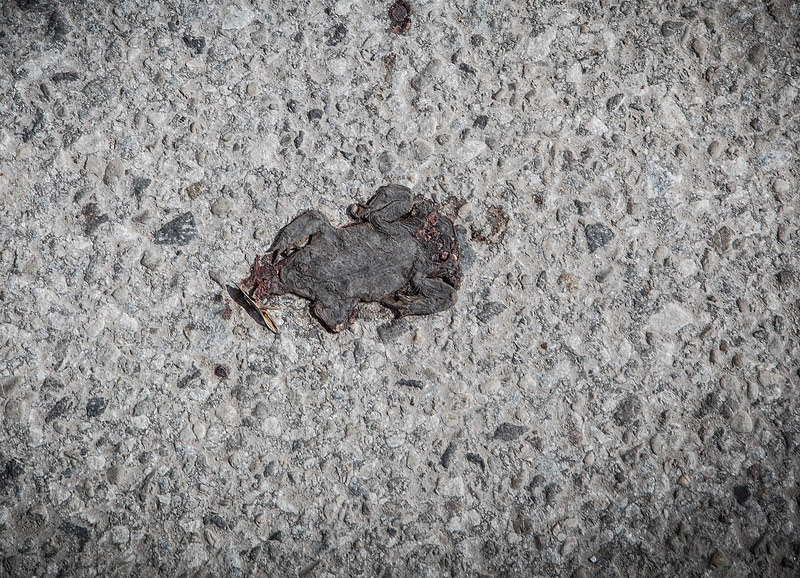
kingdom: Animalia
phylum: Chordata
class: Amphibia
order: Anura
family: Bufonidae
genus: Bufo
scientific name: Bufo bufo
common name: Common toad
